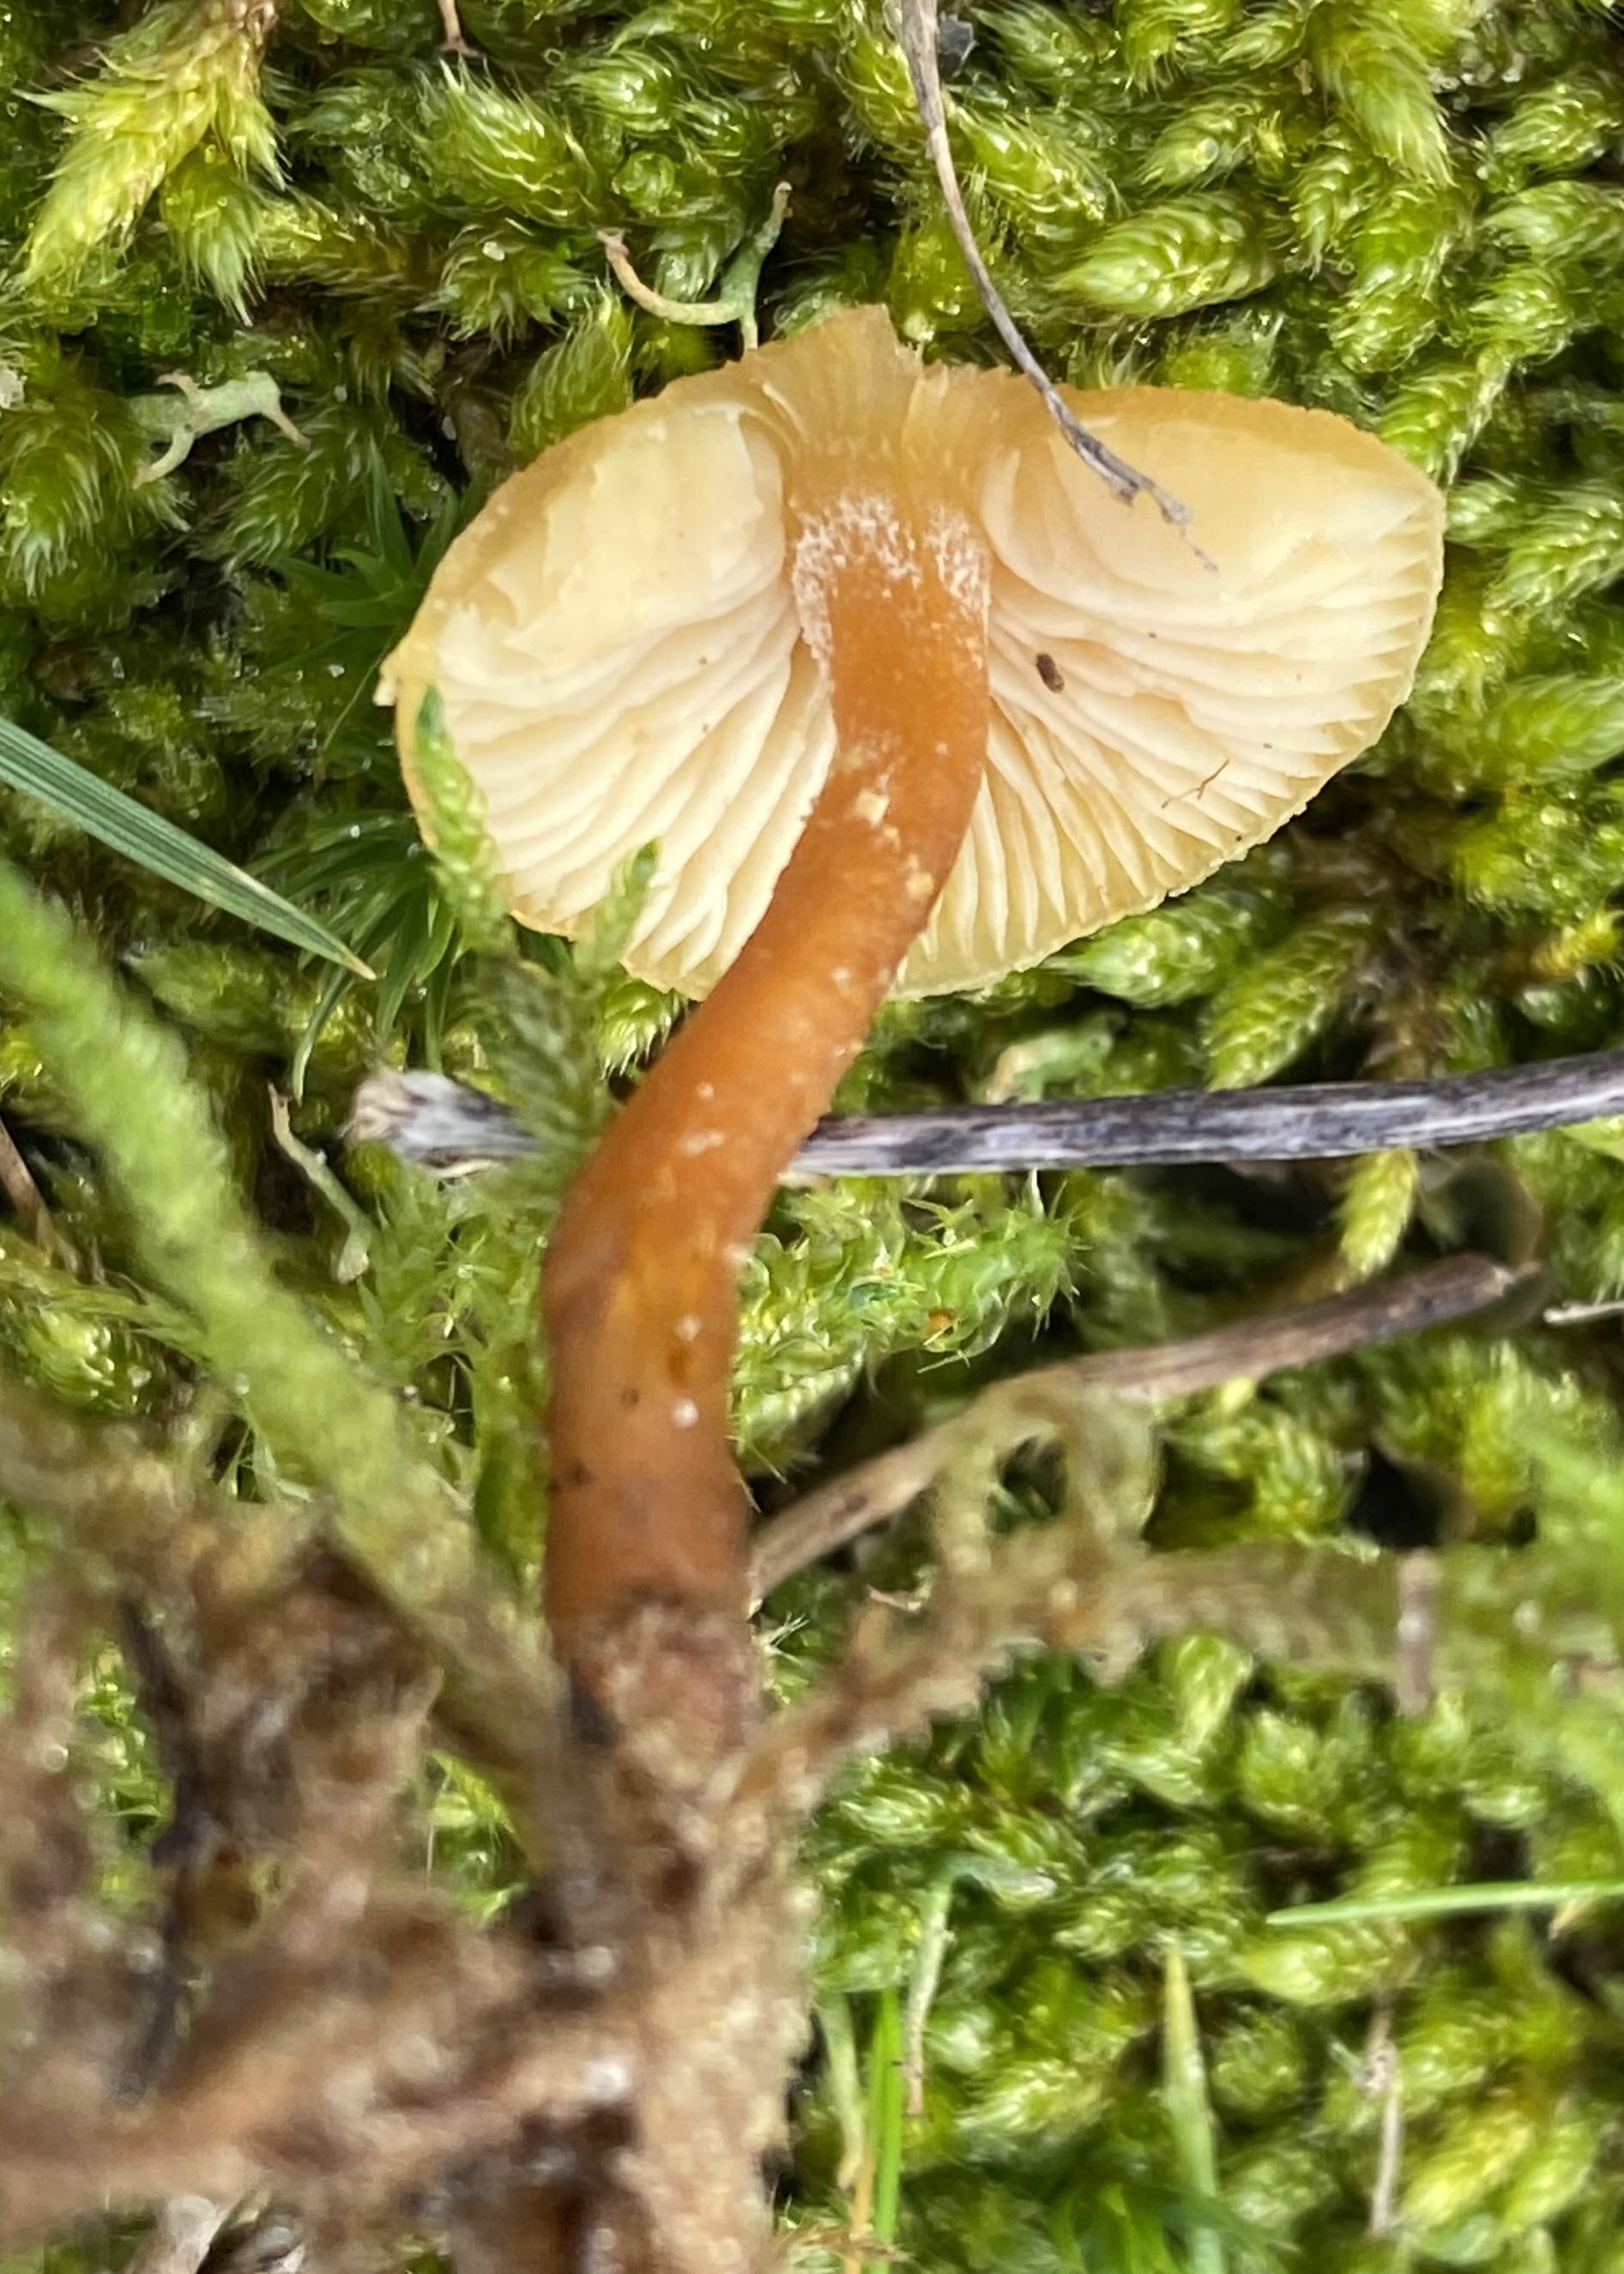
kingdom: Fungi
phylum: Basidiomycota
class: Agaricomycetes
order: Agaricales
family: Tricholomataceae
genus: Cystoderma
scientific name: Cystoderma amianthinum
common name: okkergul grynhat
